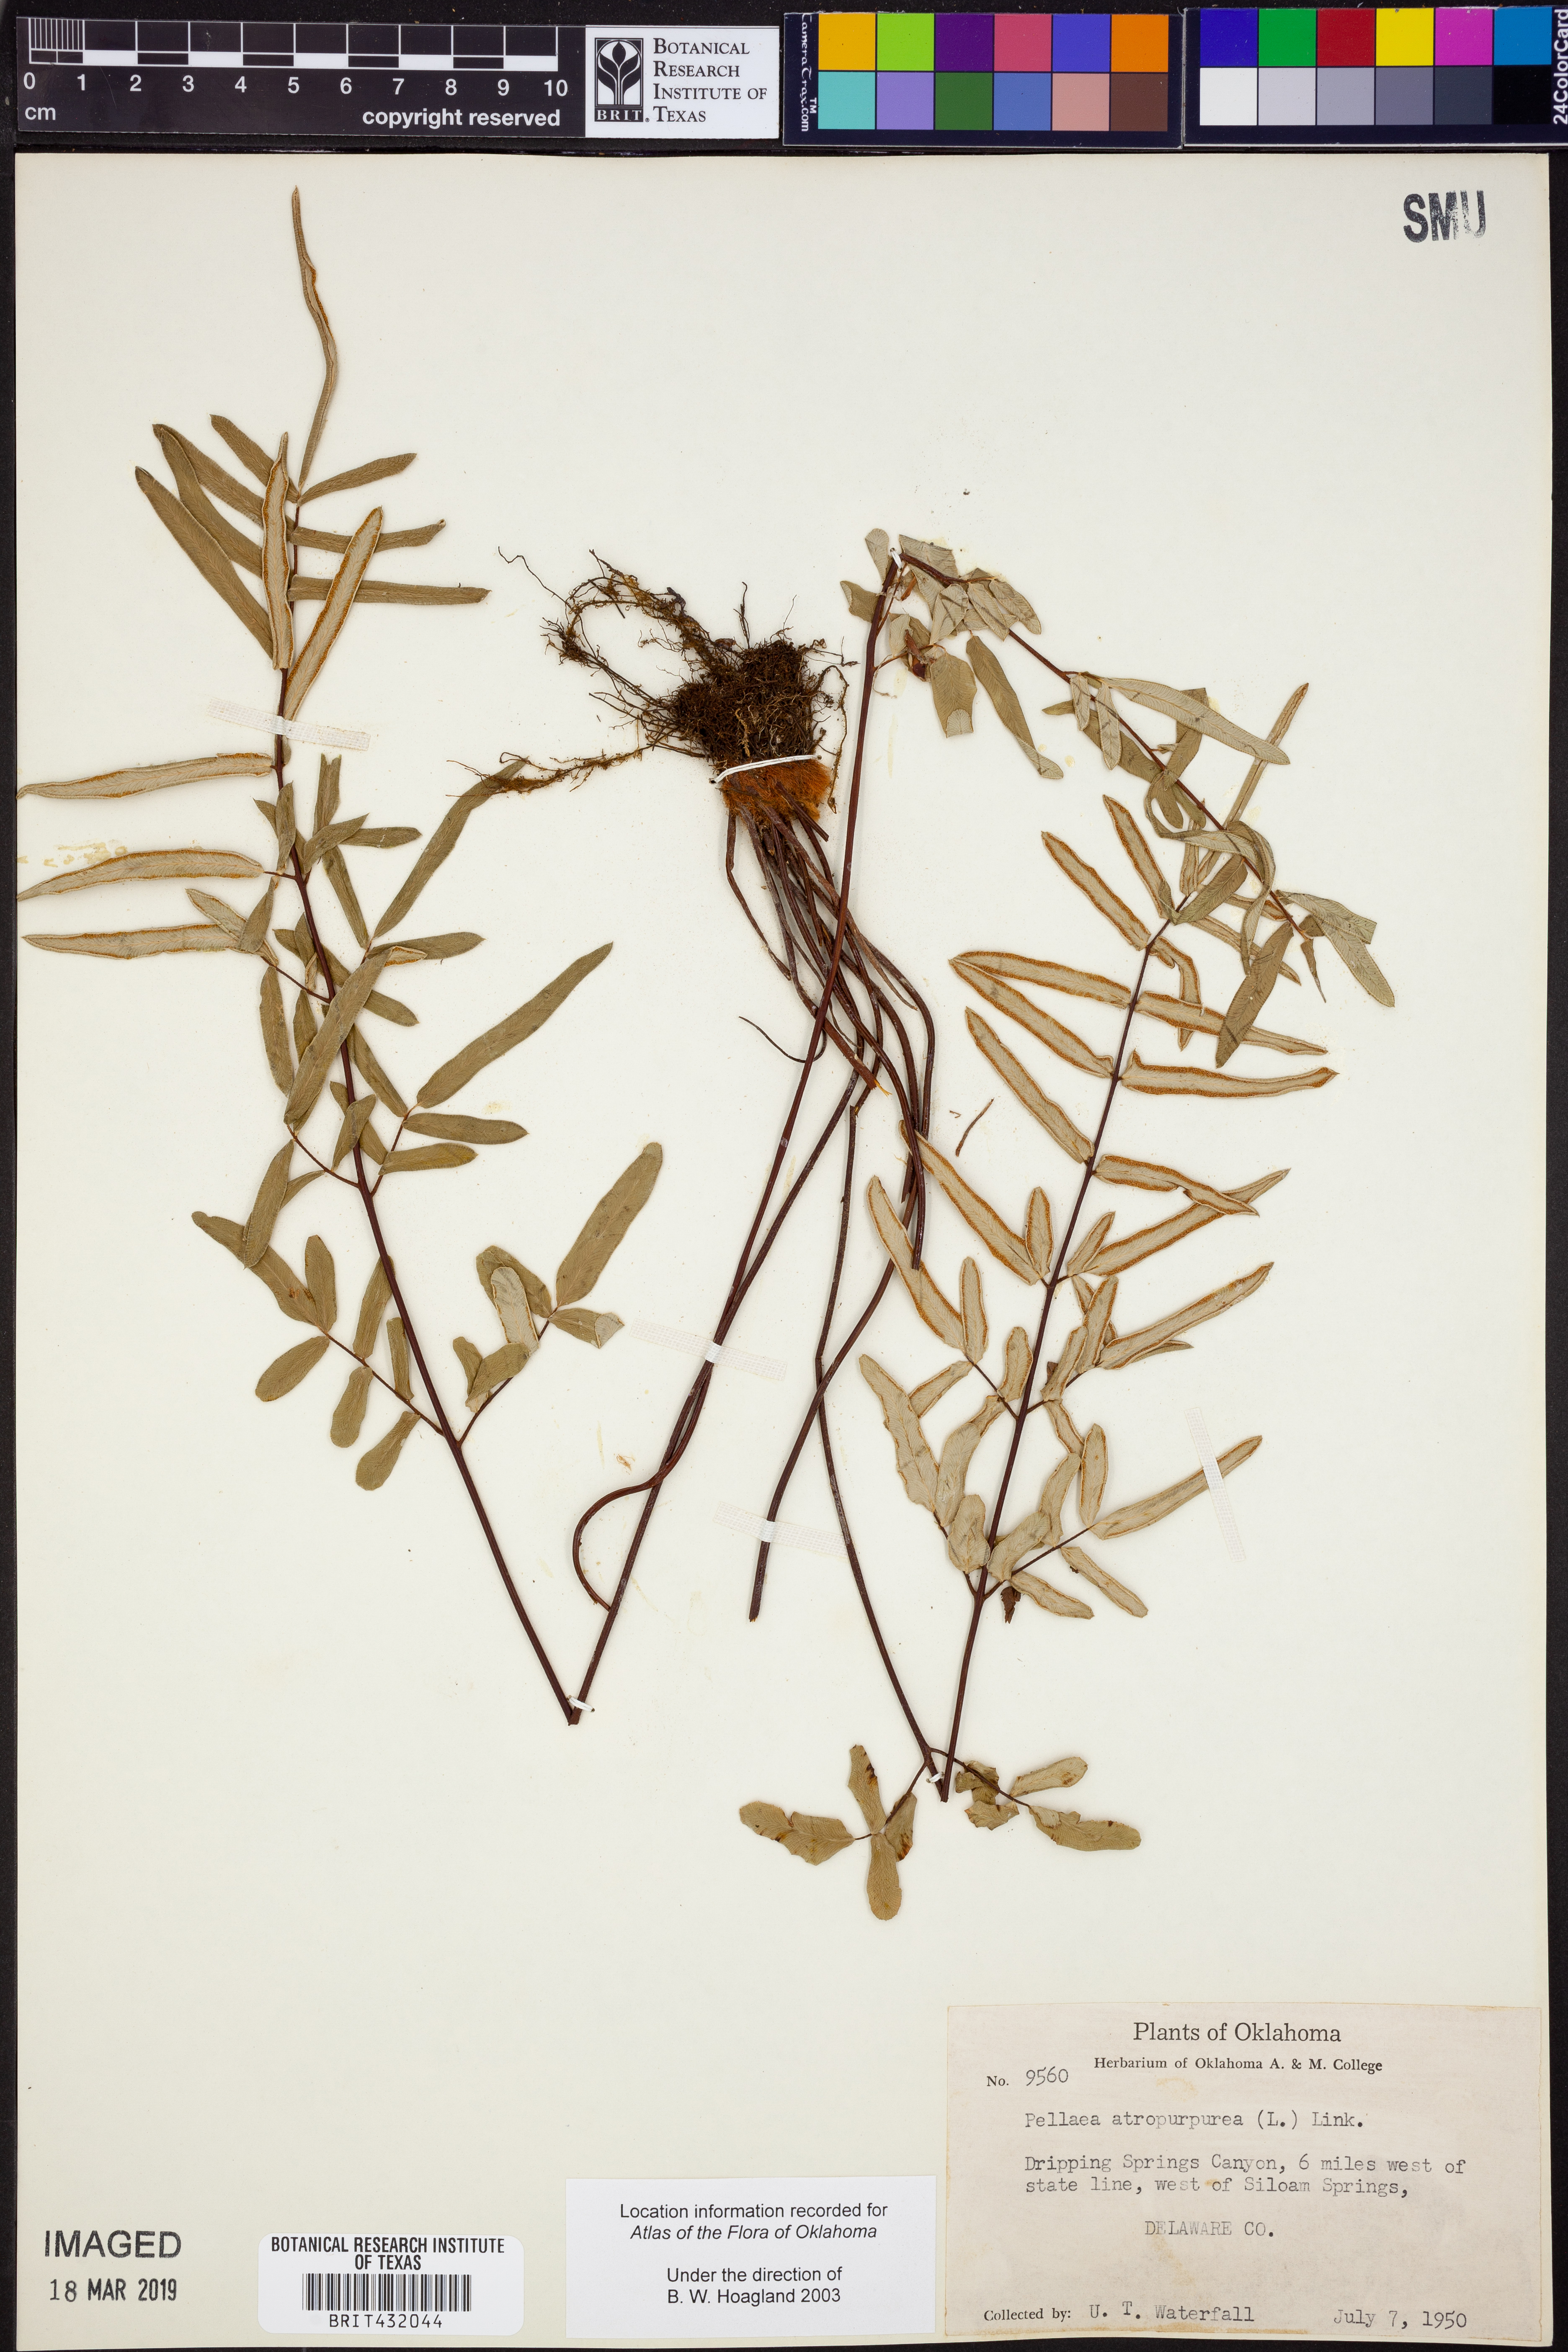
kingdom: Plantae
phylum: Tracheophyta
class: Polypodiopsida
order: Polypodiales
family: Pteridaceae
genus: Pellaea
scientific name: Pellaea atropurpurea
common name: Hairy cliffbrake
